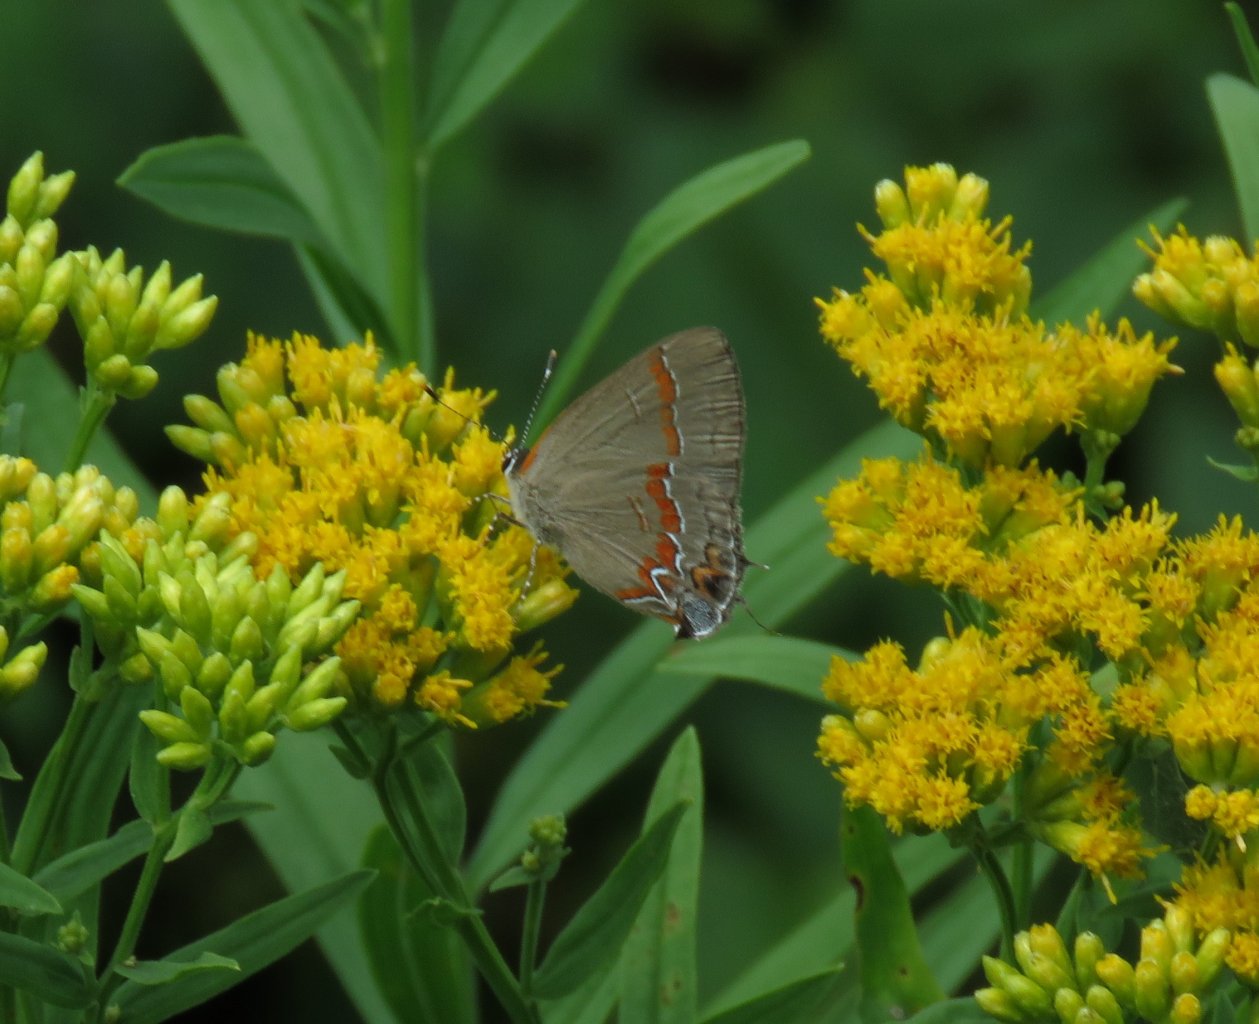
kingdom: Animalia
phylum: Arthropoda
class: Insecta
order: Lepidoptera
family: Lycaenidae
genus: Calycopis
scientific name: Calycopis cecrops
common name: Red-banded Hairstreak
